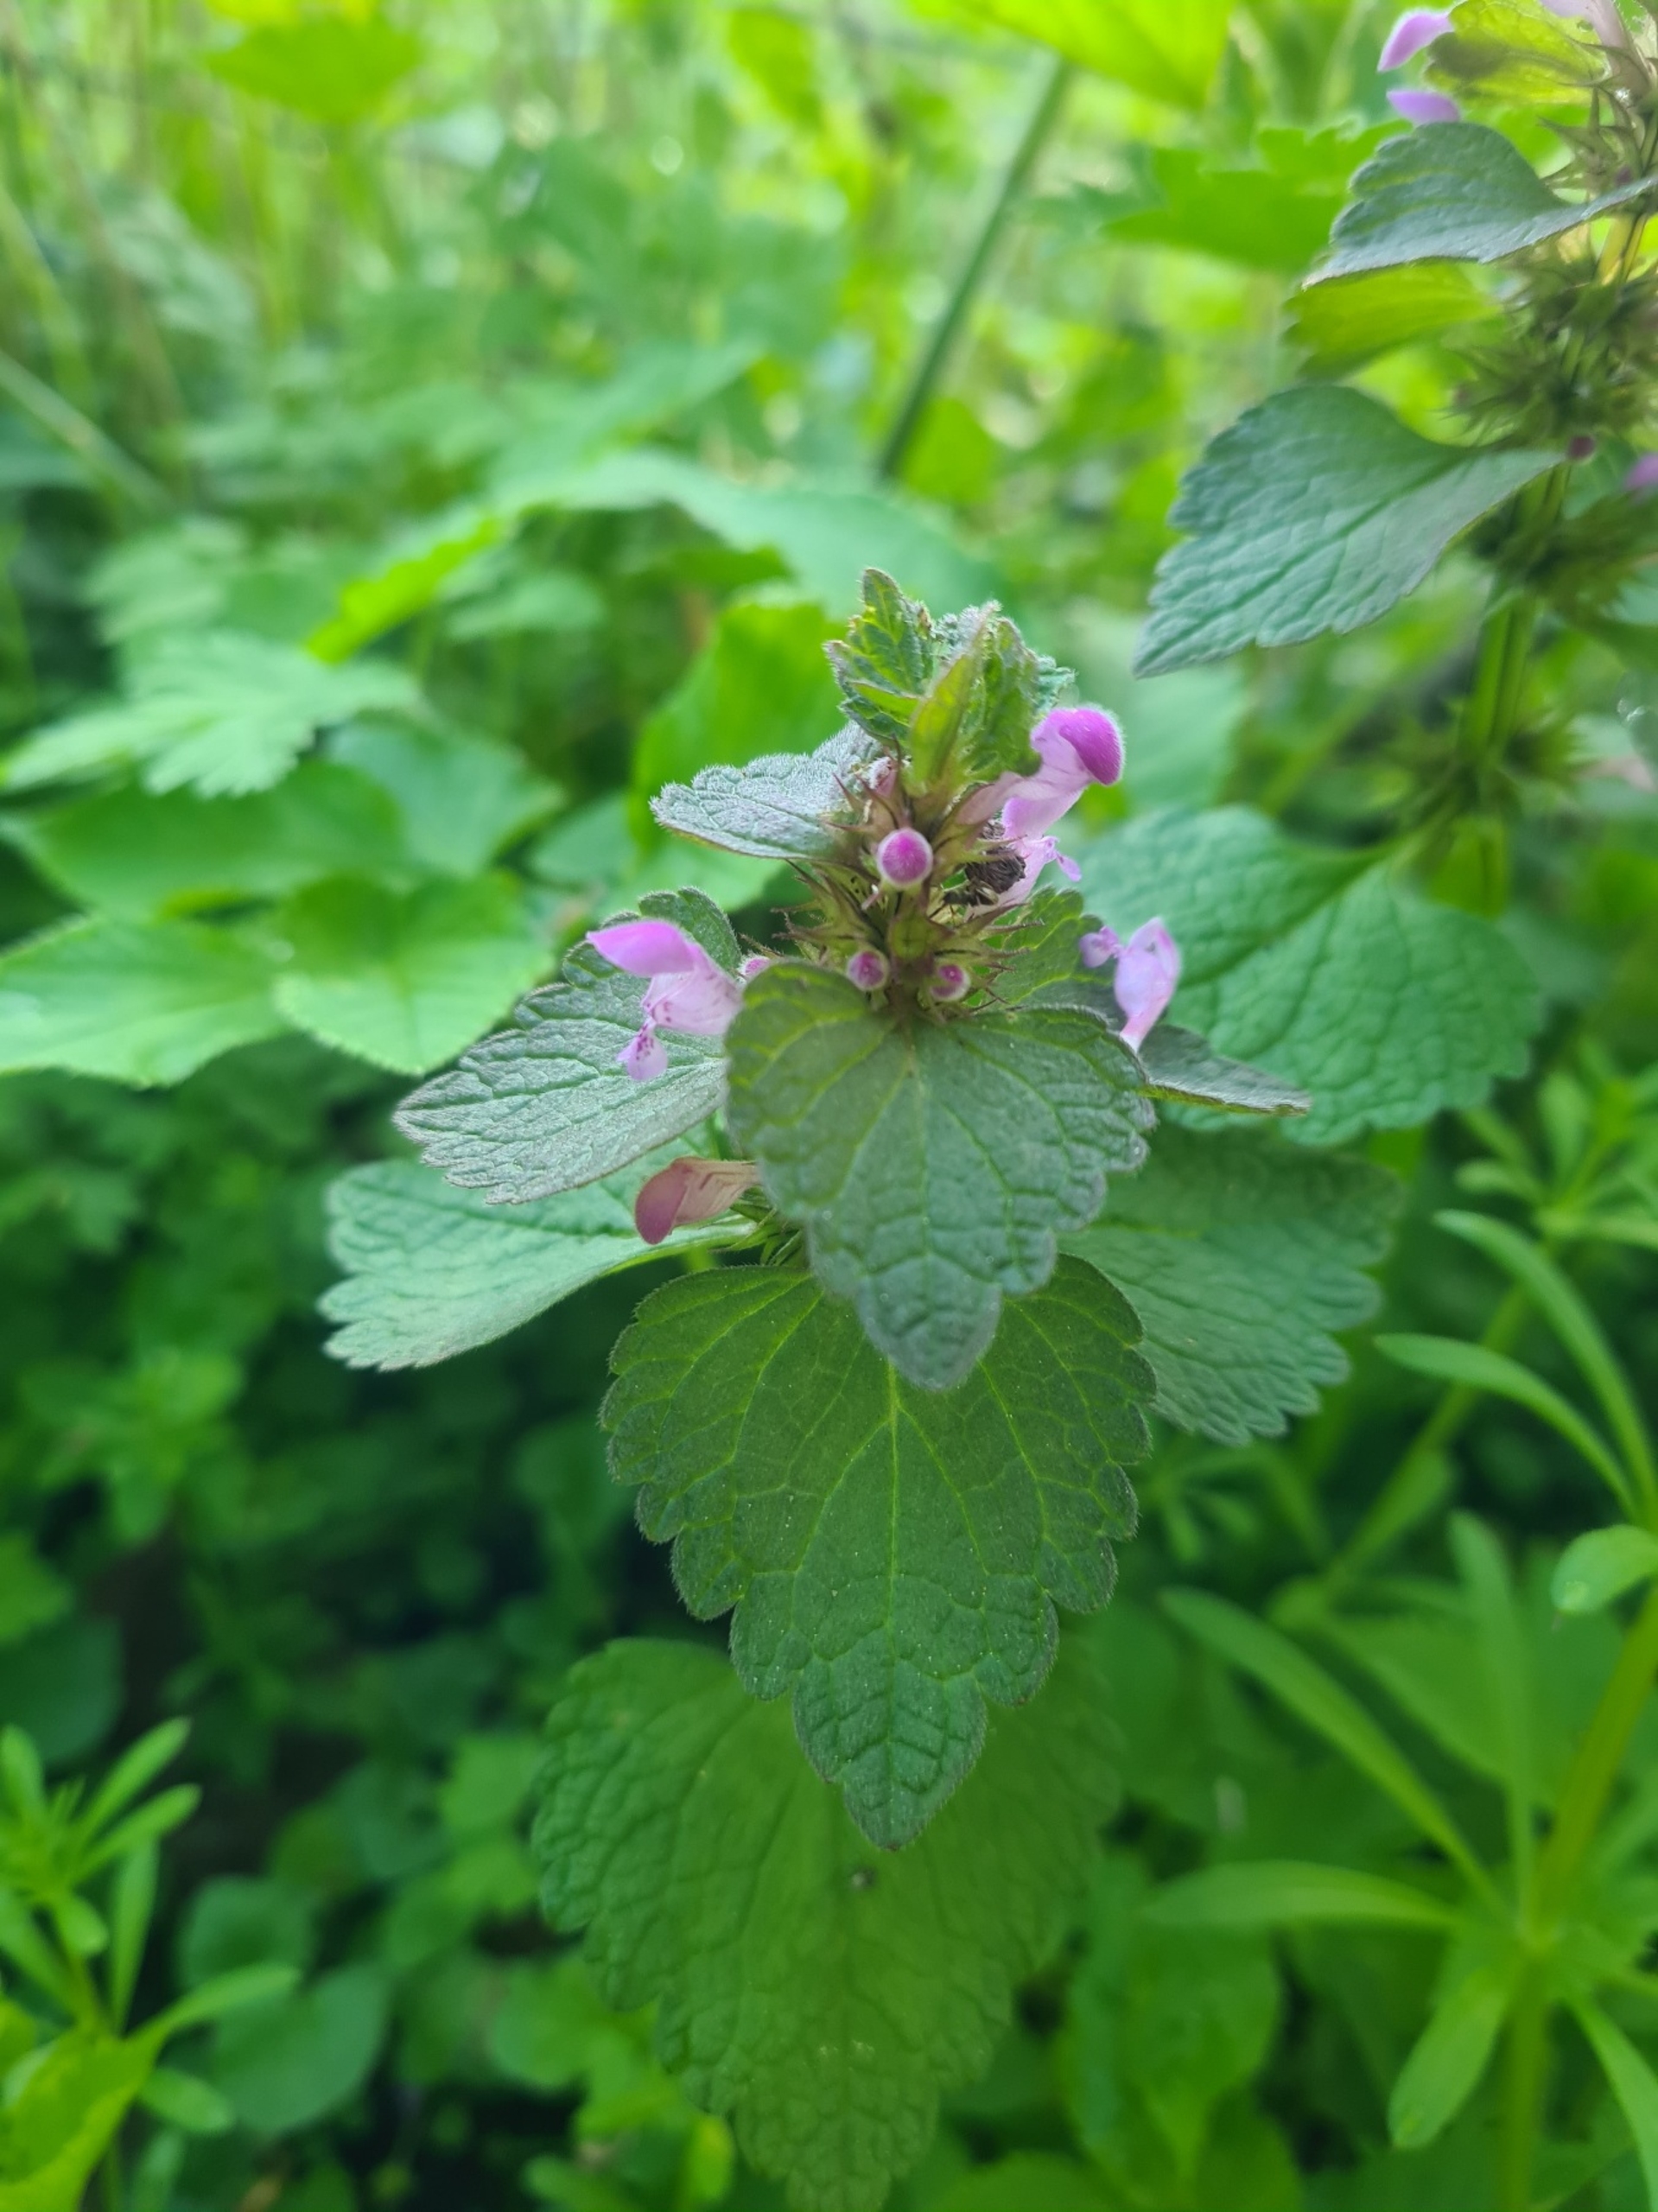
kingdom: Plantae
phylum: Tracheophyta
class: Magnoliopsida
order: Lamiales
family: Lamiaceae
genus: Lamium
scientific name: Lamium purpureum
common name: Rød tvetand
